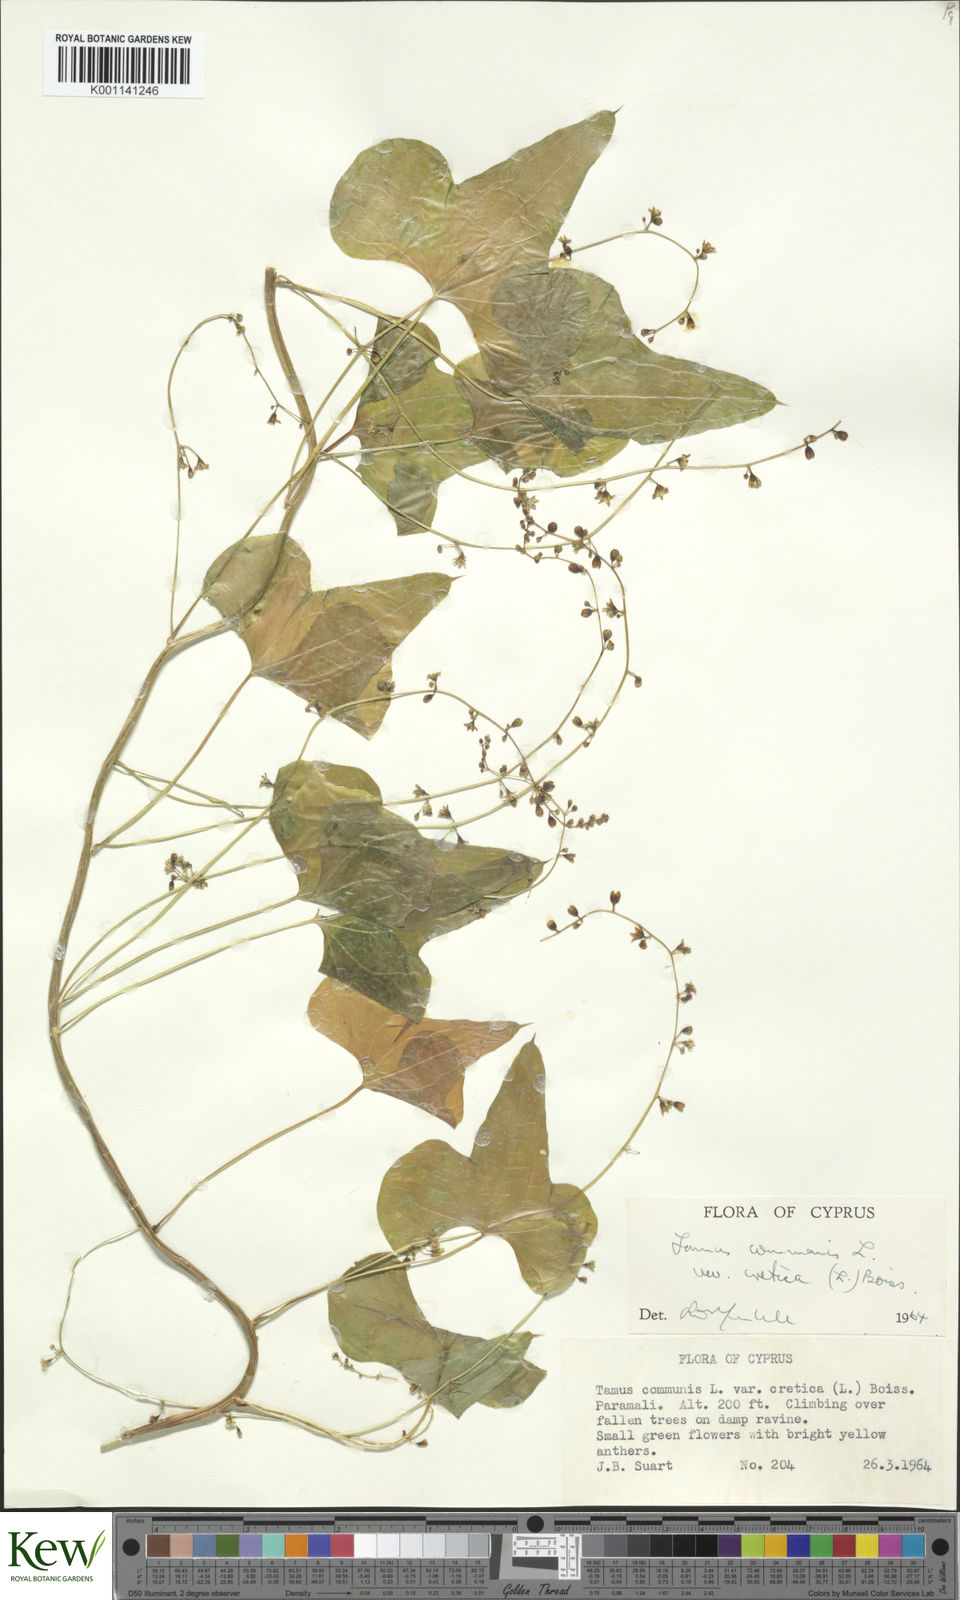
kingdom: Plantae
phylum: Tracheophyta
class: Liliopsida
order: Dioscoreales
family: Dioscoreaceae
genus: Dioscorea
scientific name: Dioscorea communis
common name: Black-bindweed
